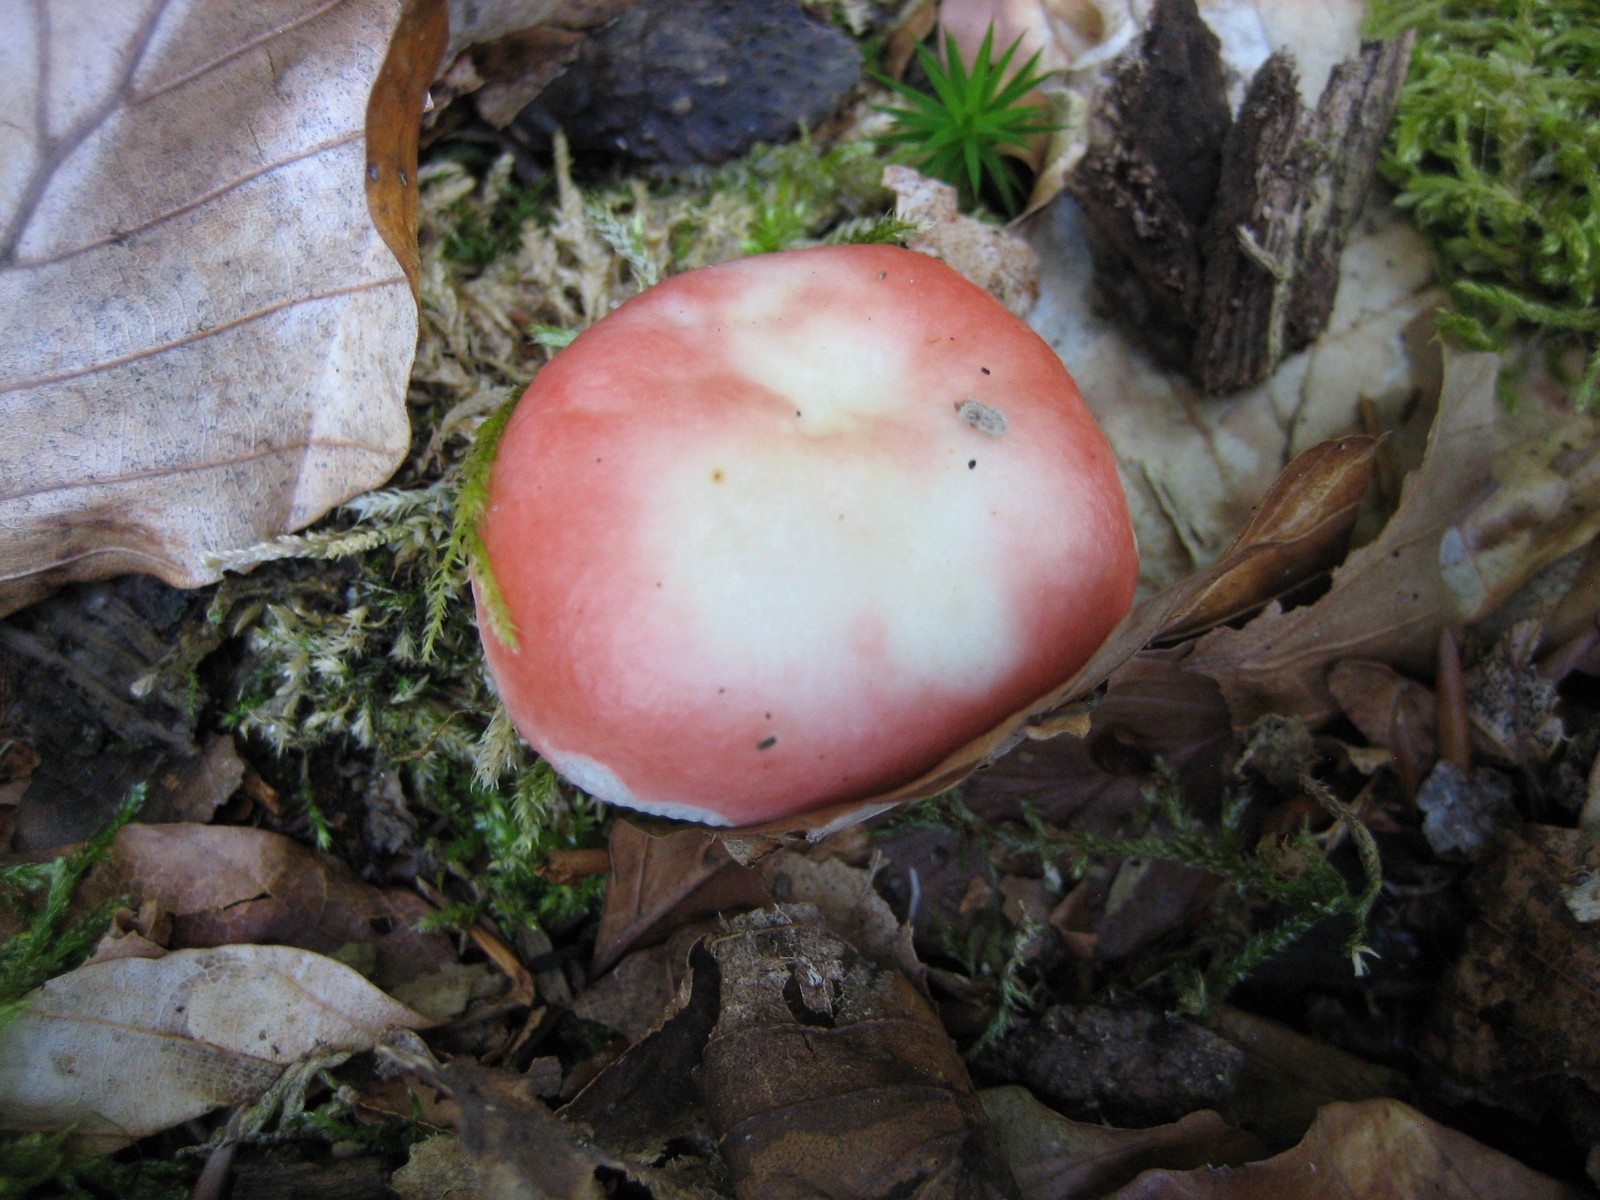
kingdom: Fungi
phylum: Basidiomycota
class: Agaricomycetes
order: Russulales
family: Russulaceae
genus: Russula
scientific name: Russula nobilis
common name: lille gift-skørhat
